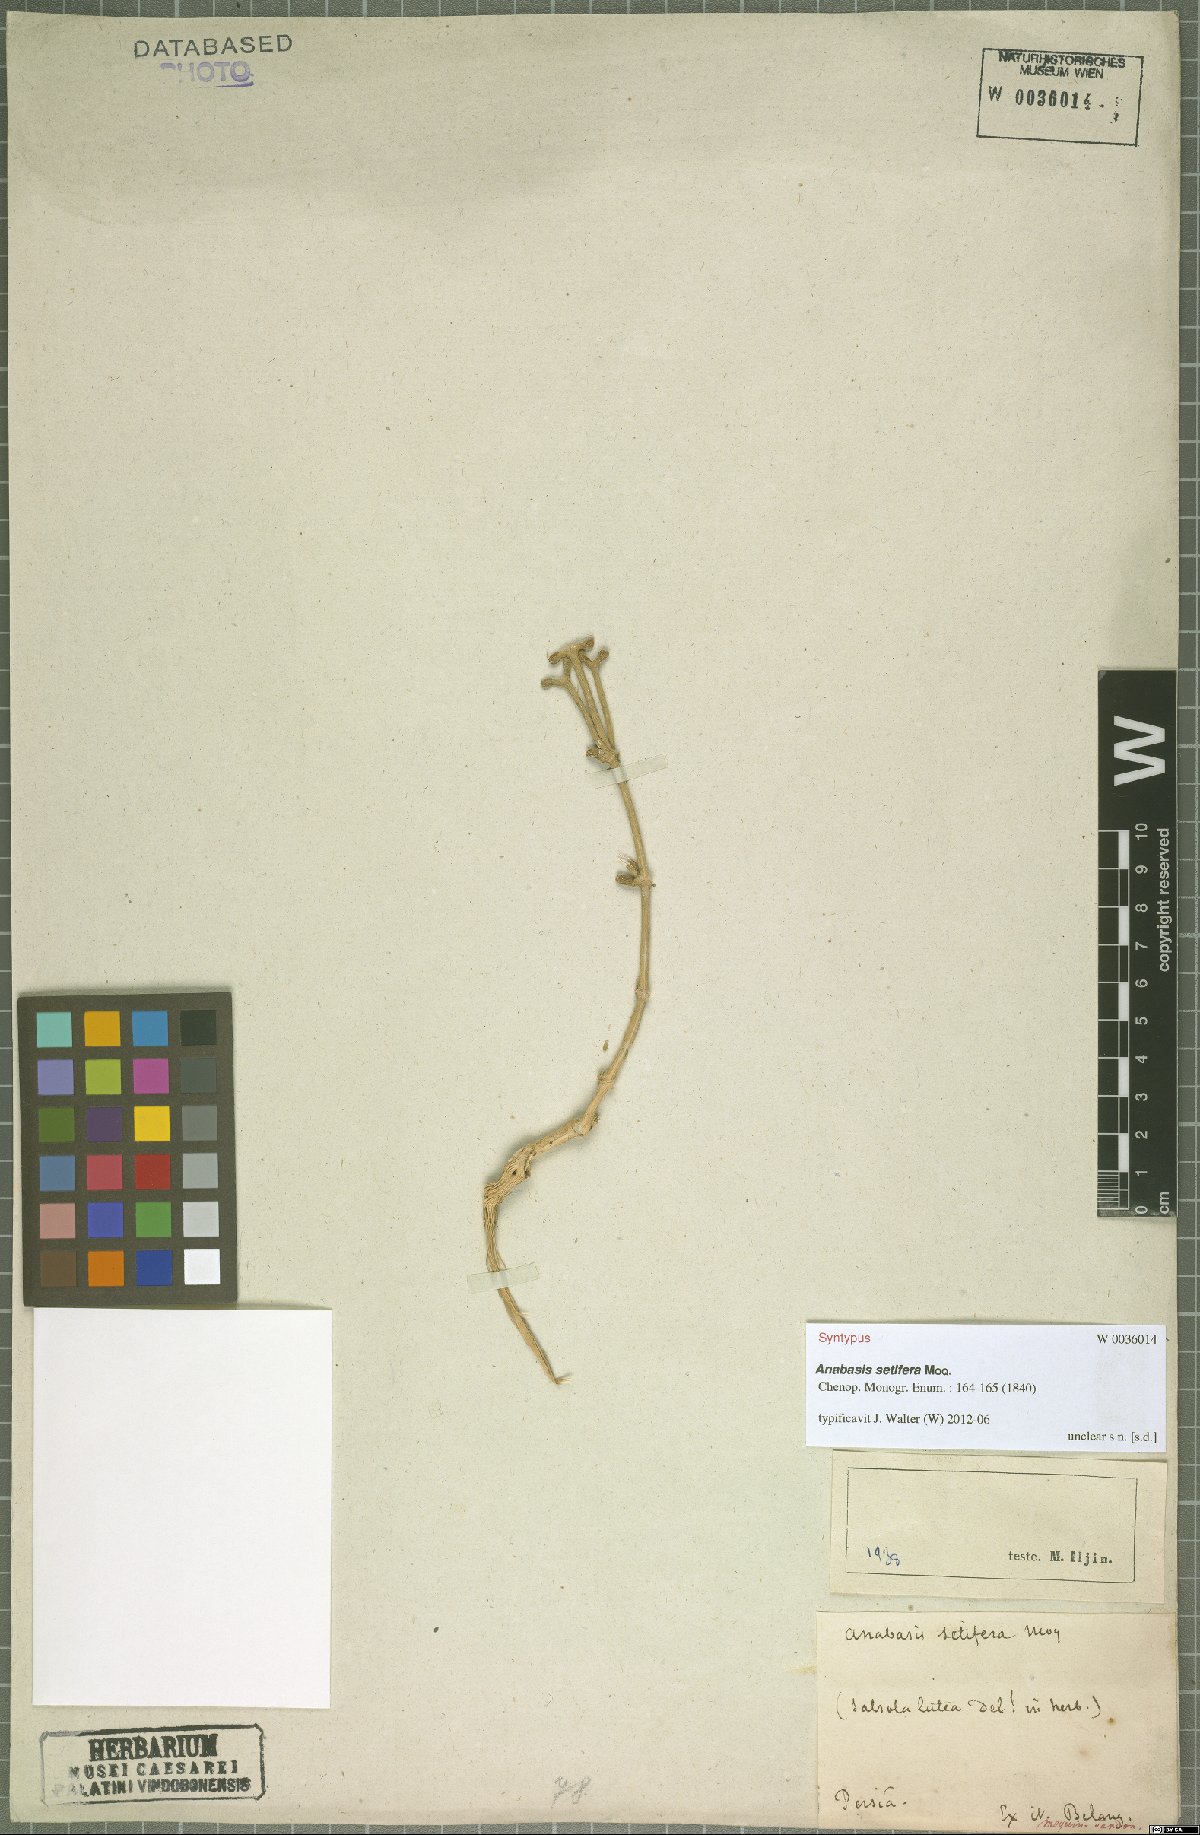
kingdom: Plantae
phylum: Tracheophyta
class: Magnoliopsida
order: Caryophyllales
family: Amaranthaceae
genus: Anabasis
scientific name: Anabasis setifera
